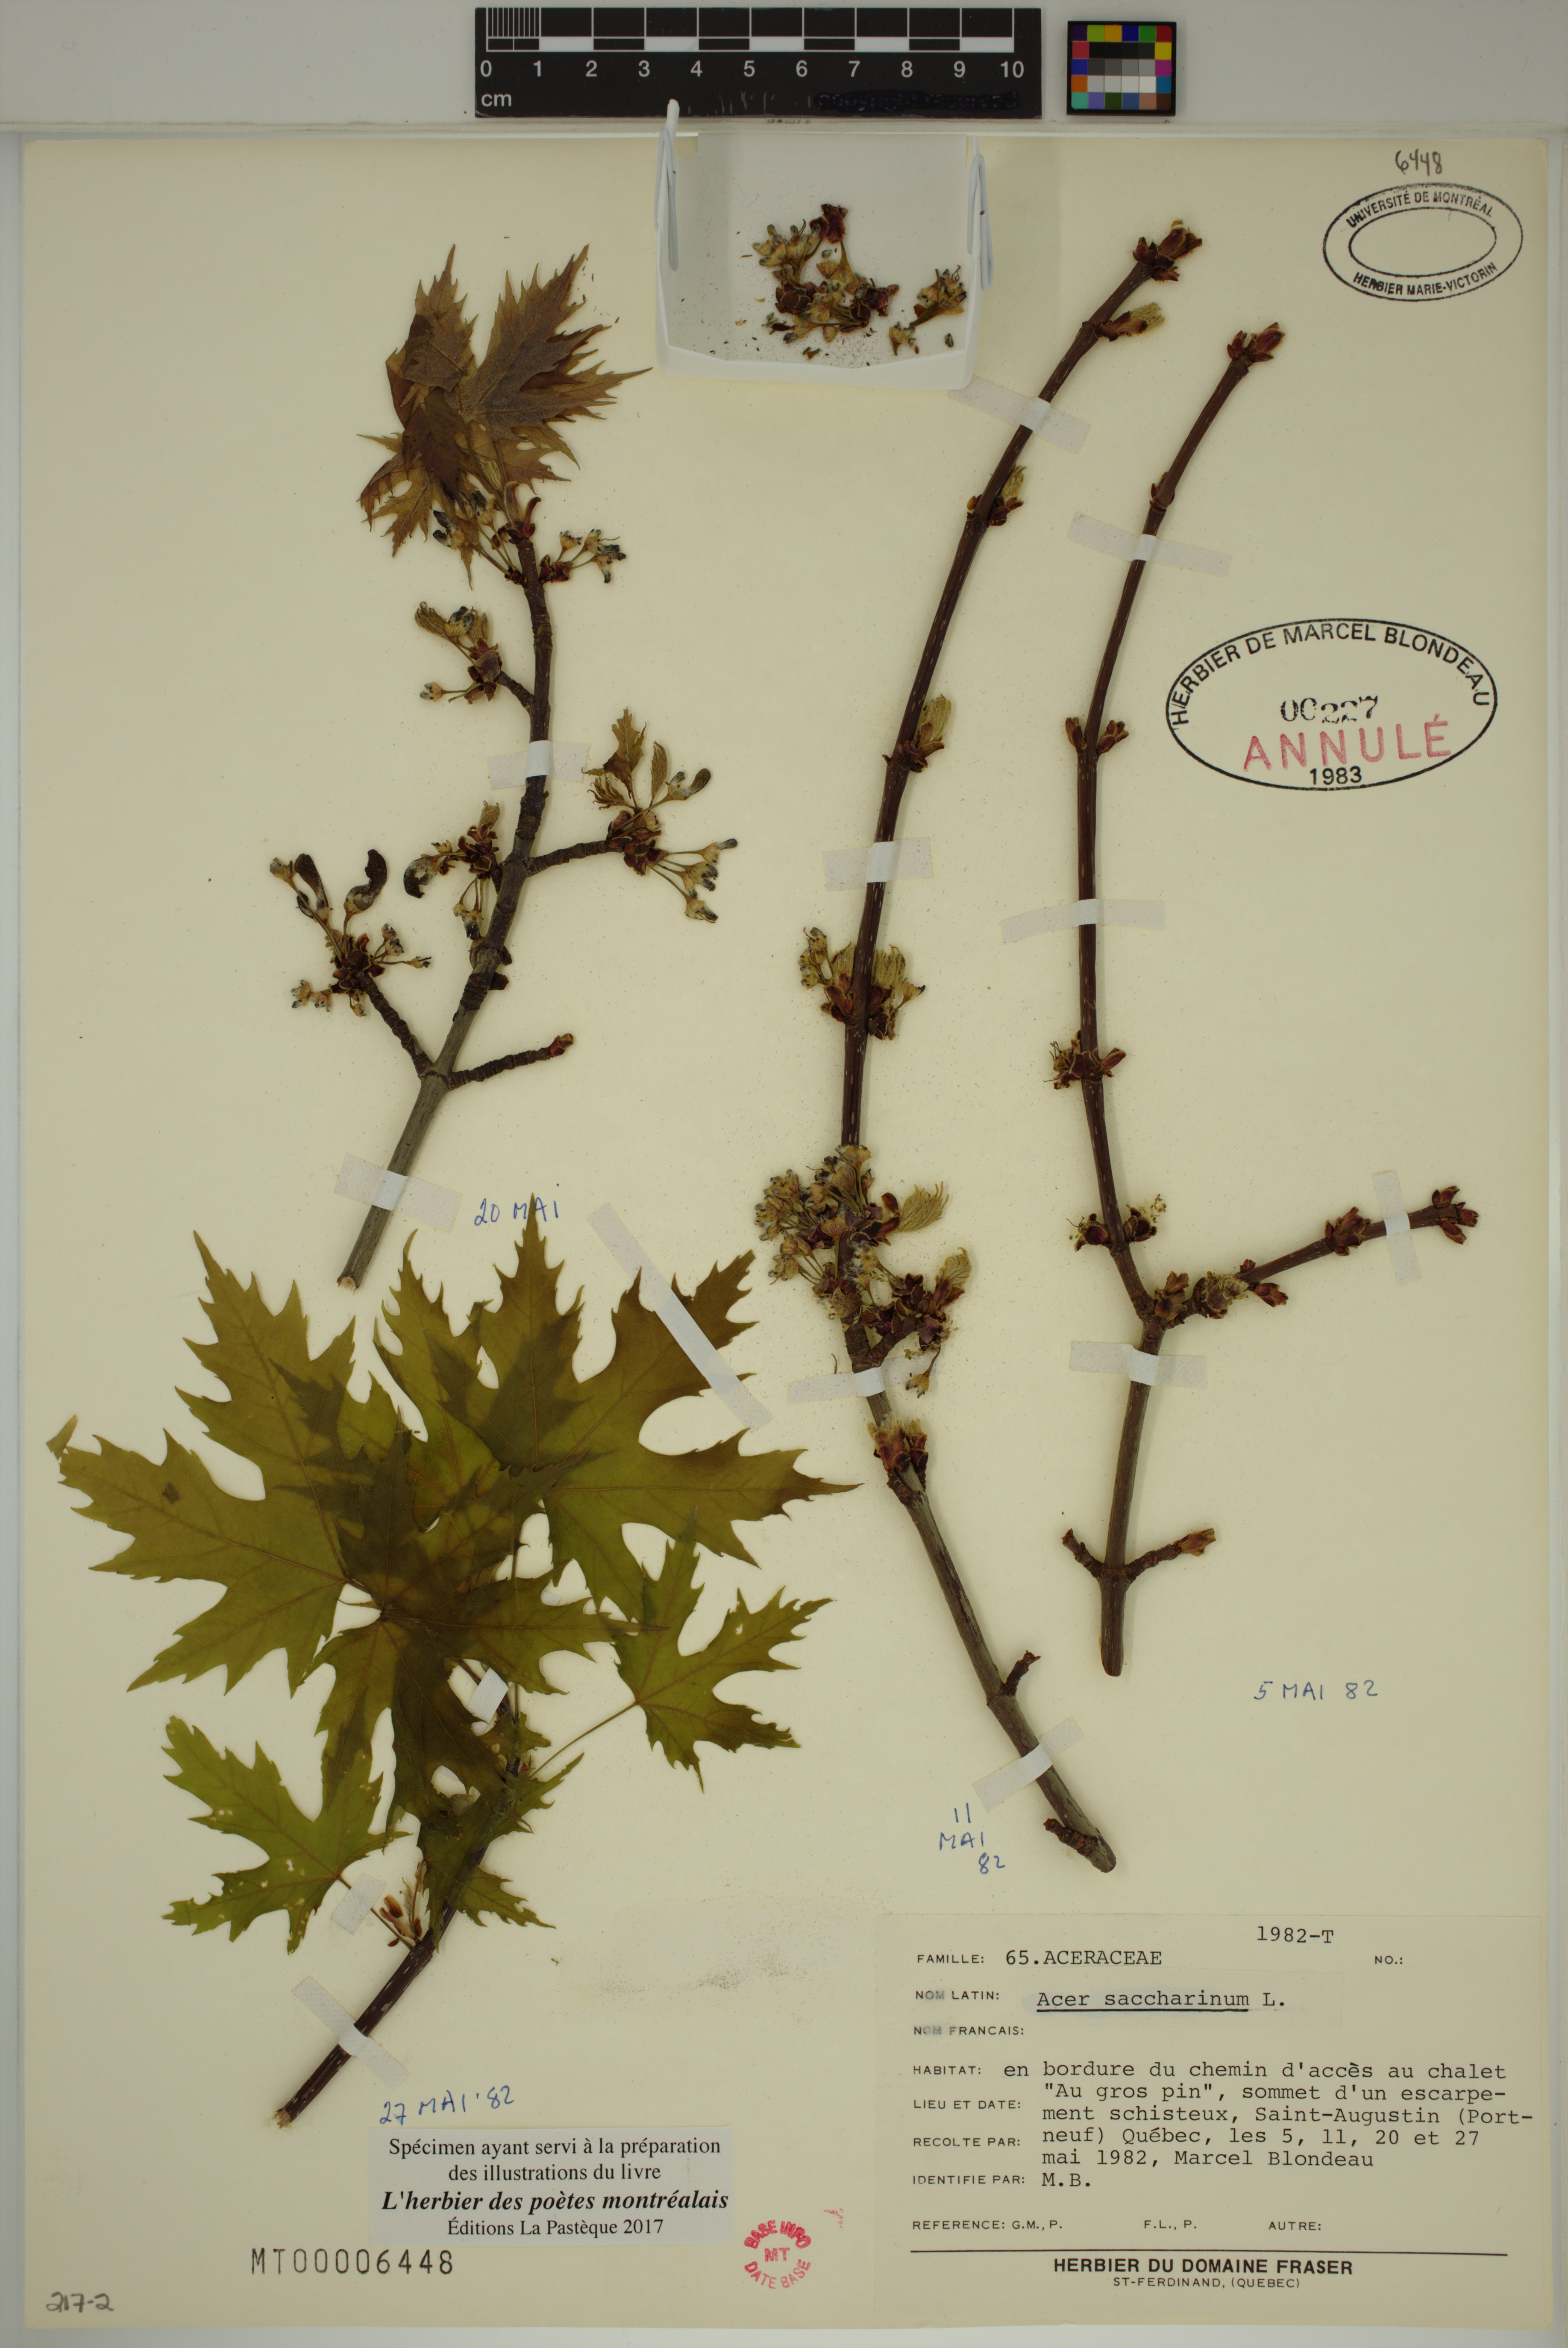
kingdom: Plantae
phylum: Tracheophyta
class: Magnoliopsida
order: Sapindales
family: Sapindaceae
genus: Acer
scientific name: Acer saccharinum
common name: Silver maple
